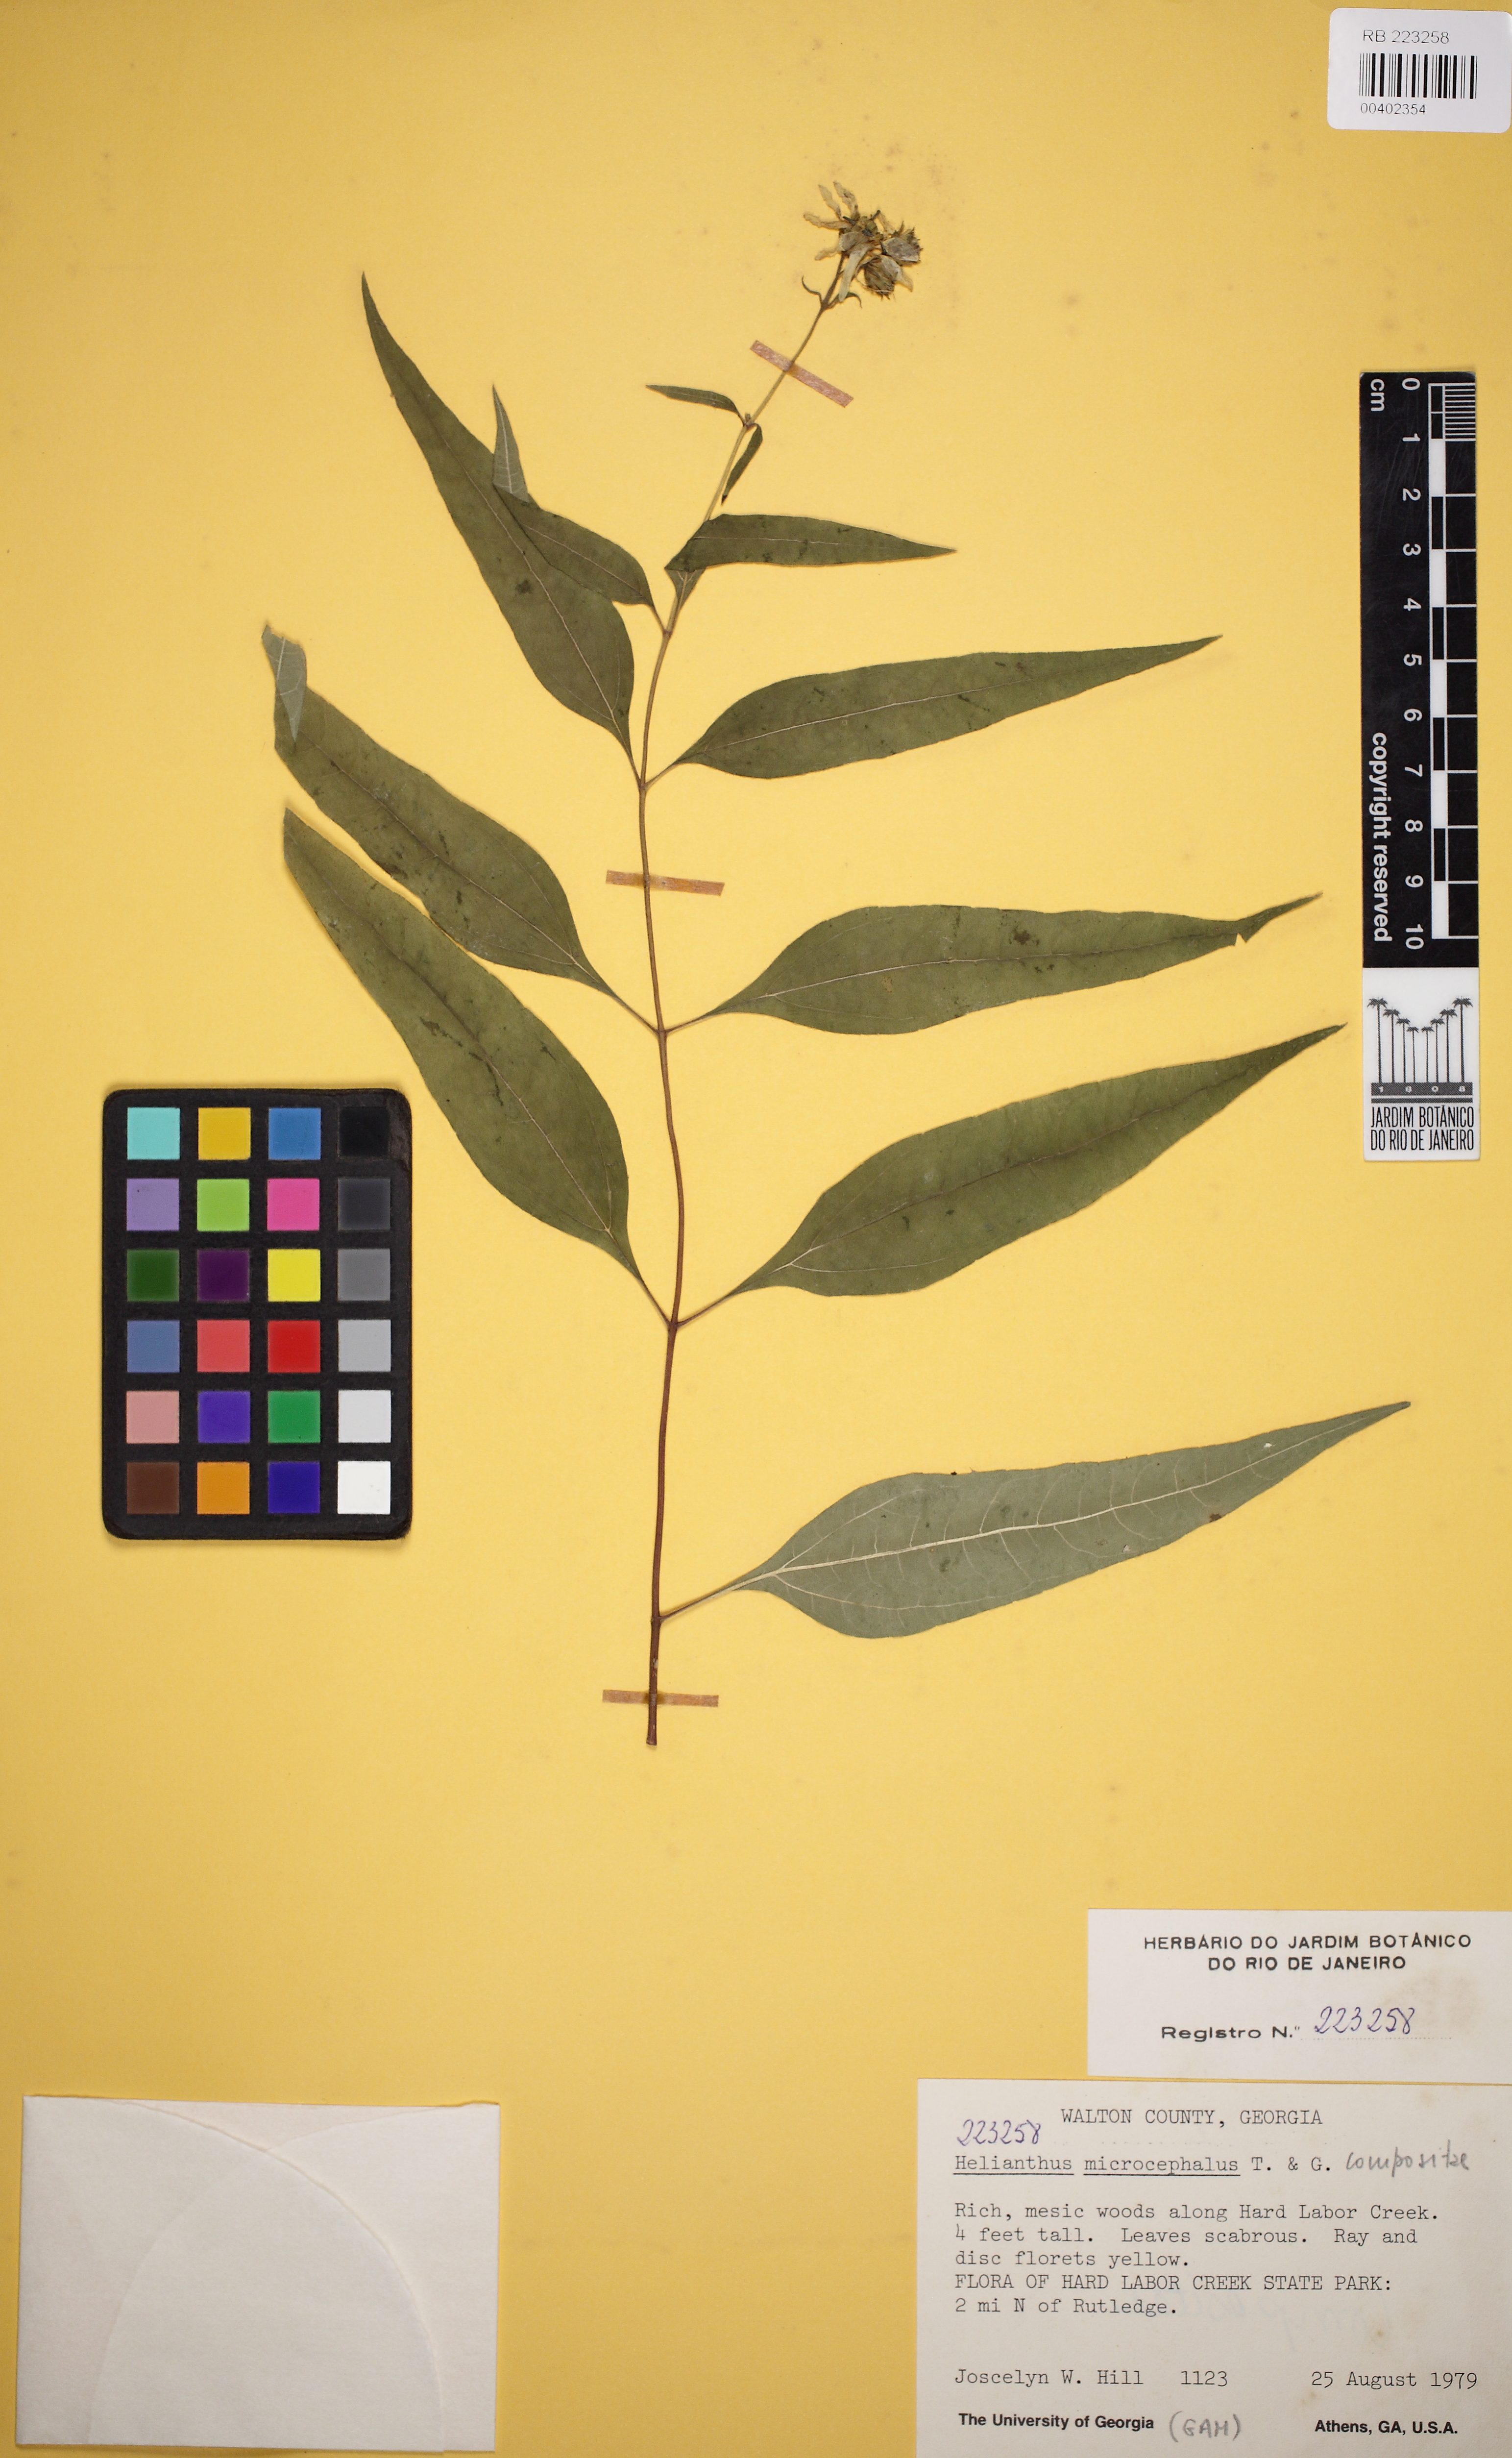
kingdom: Plantae
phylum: Tracheophyta
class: Magnoliopsida
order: Asterales
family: Asteraceae
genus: Helianthus
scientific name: Helianthus microcephalus
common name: Woodland sunflower
